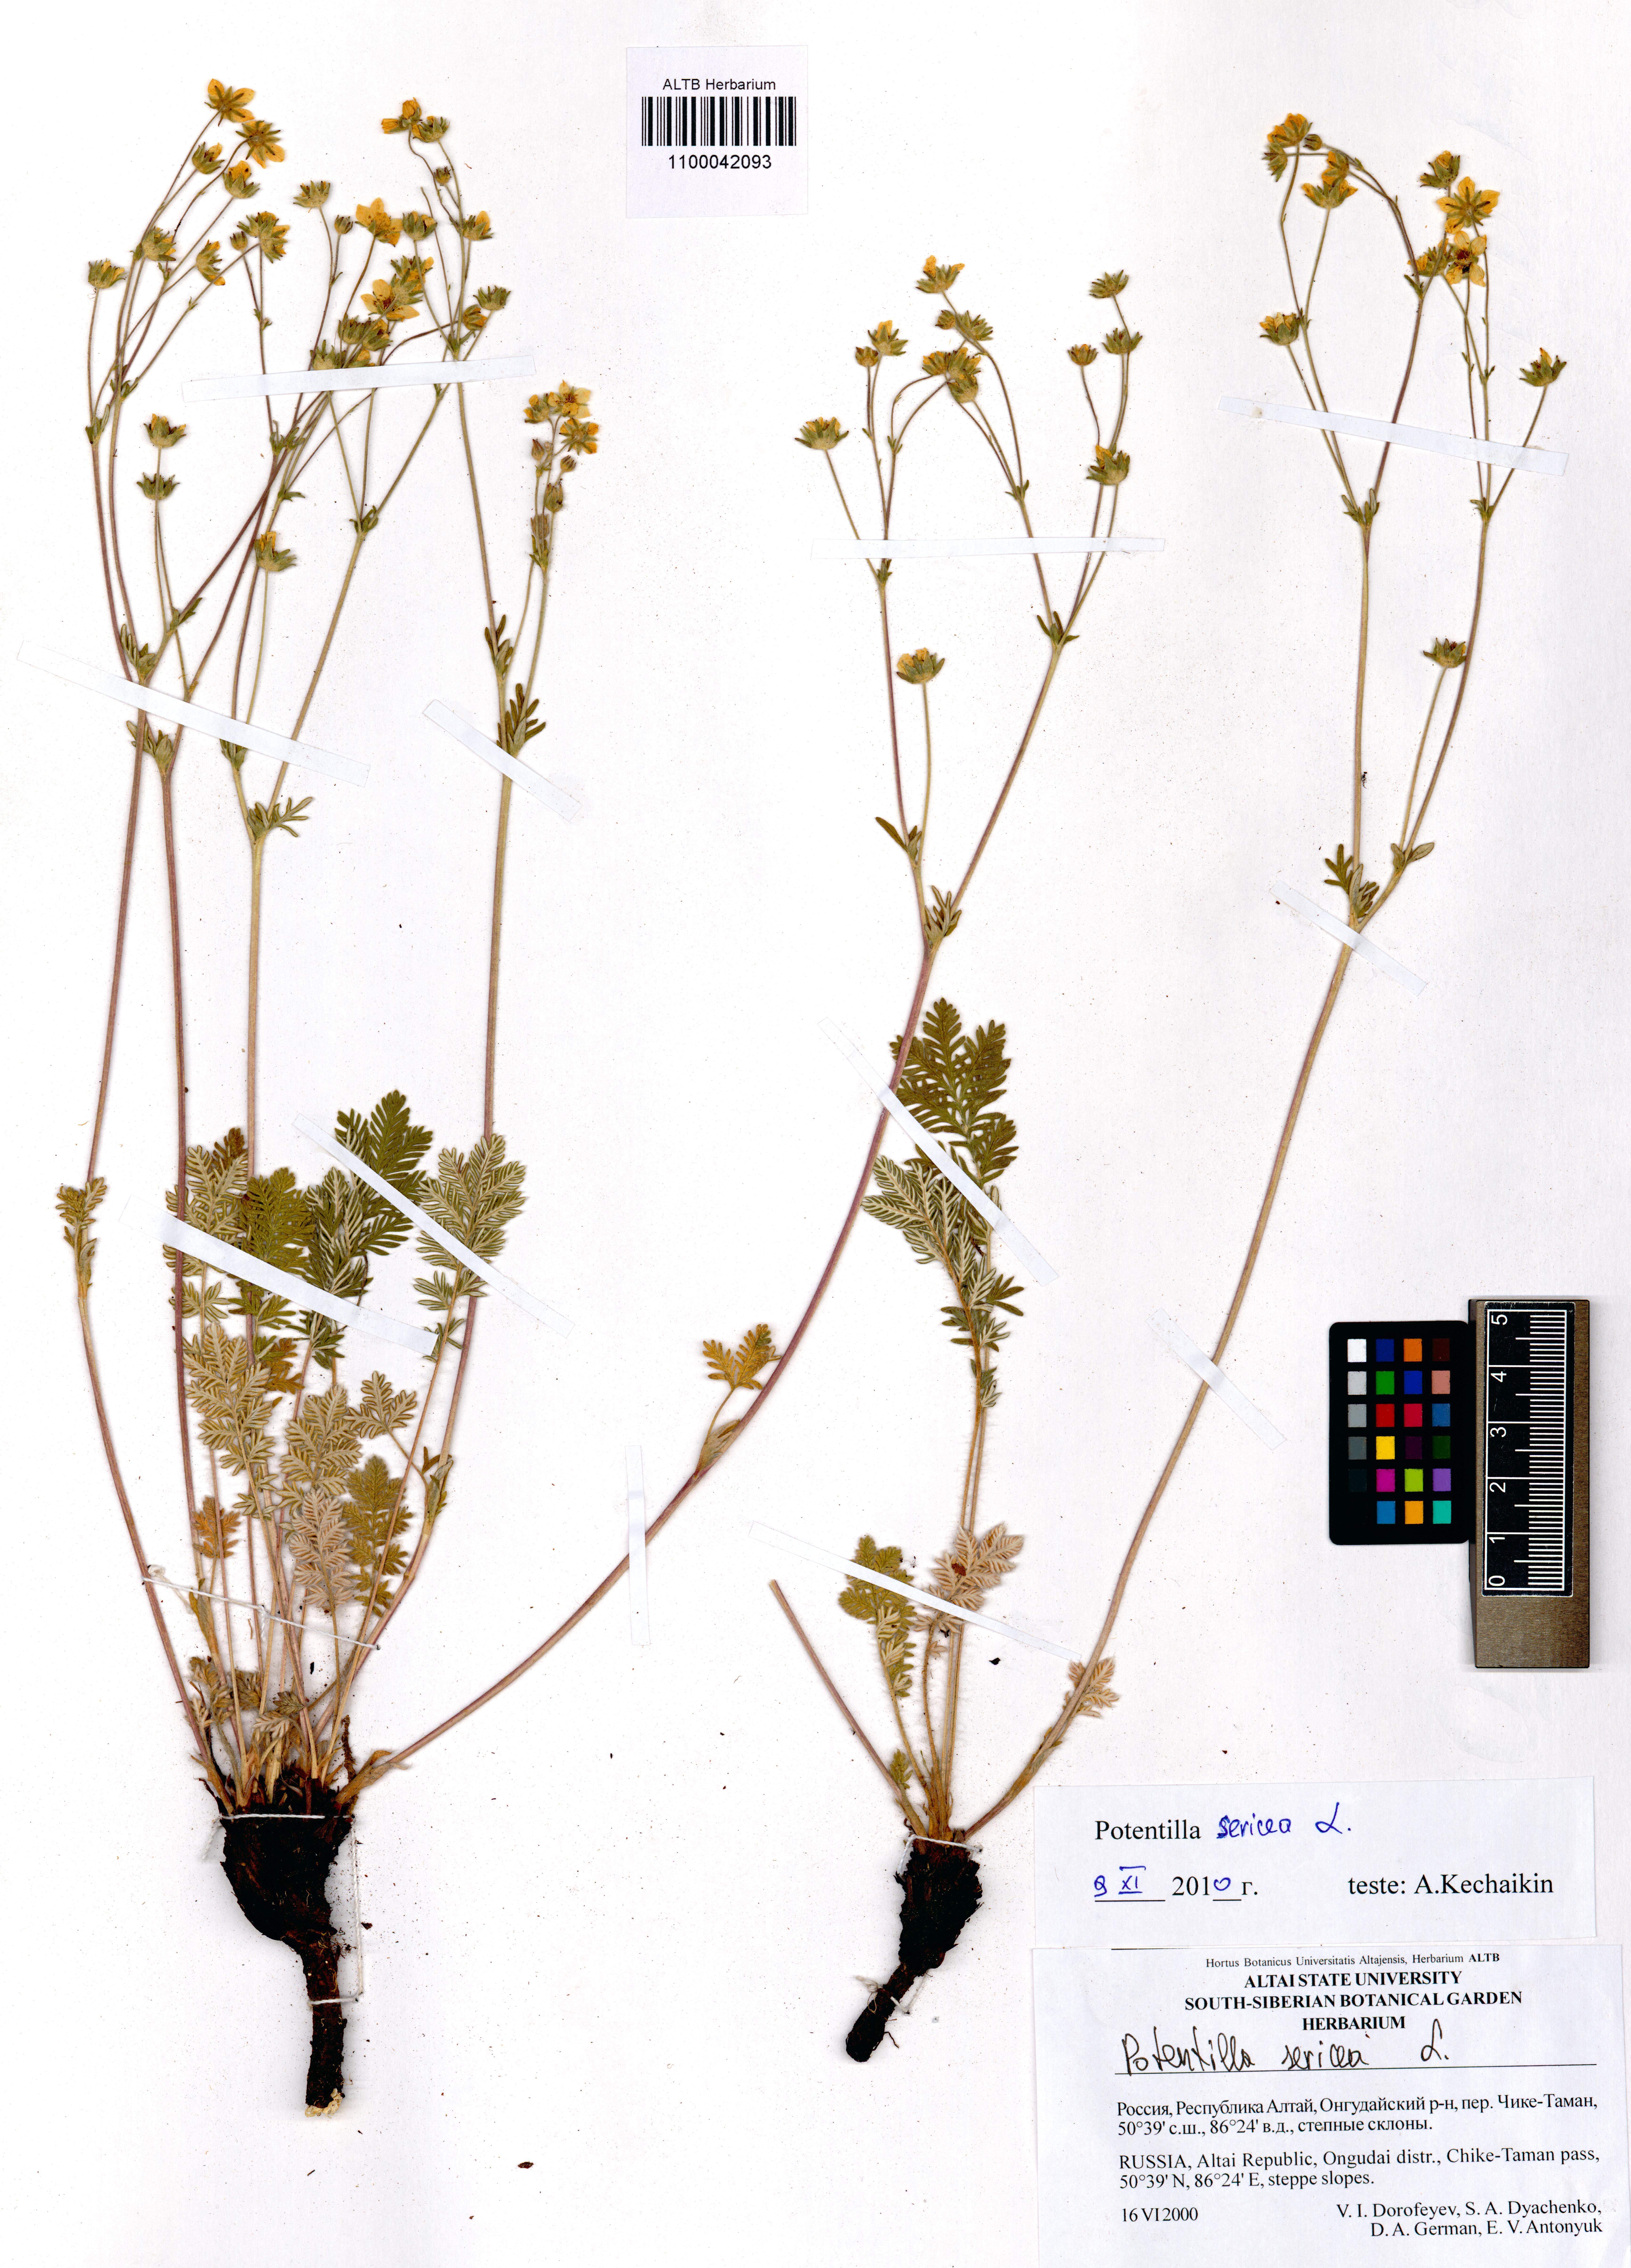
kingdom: Plantae
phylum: Tracheophyta
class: Magnoliopsida
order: Rosales
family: Rosaceae
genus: Potentilla
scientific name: Potentilla sericea
